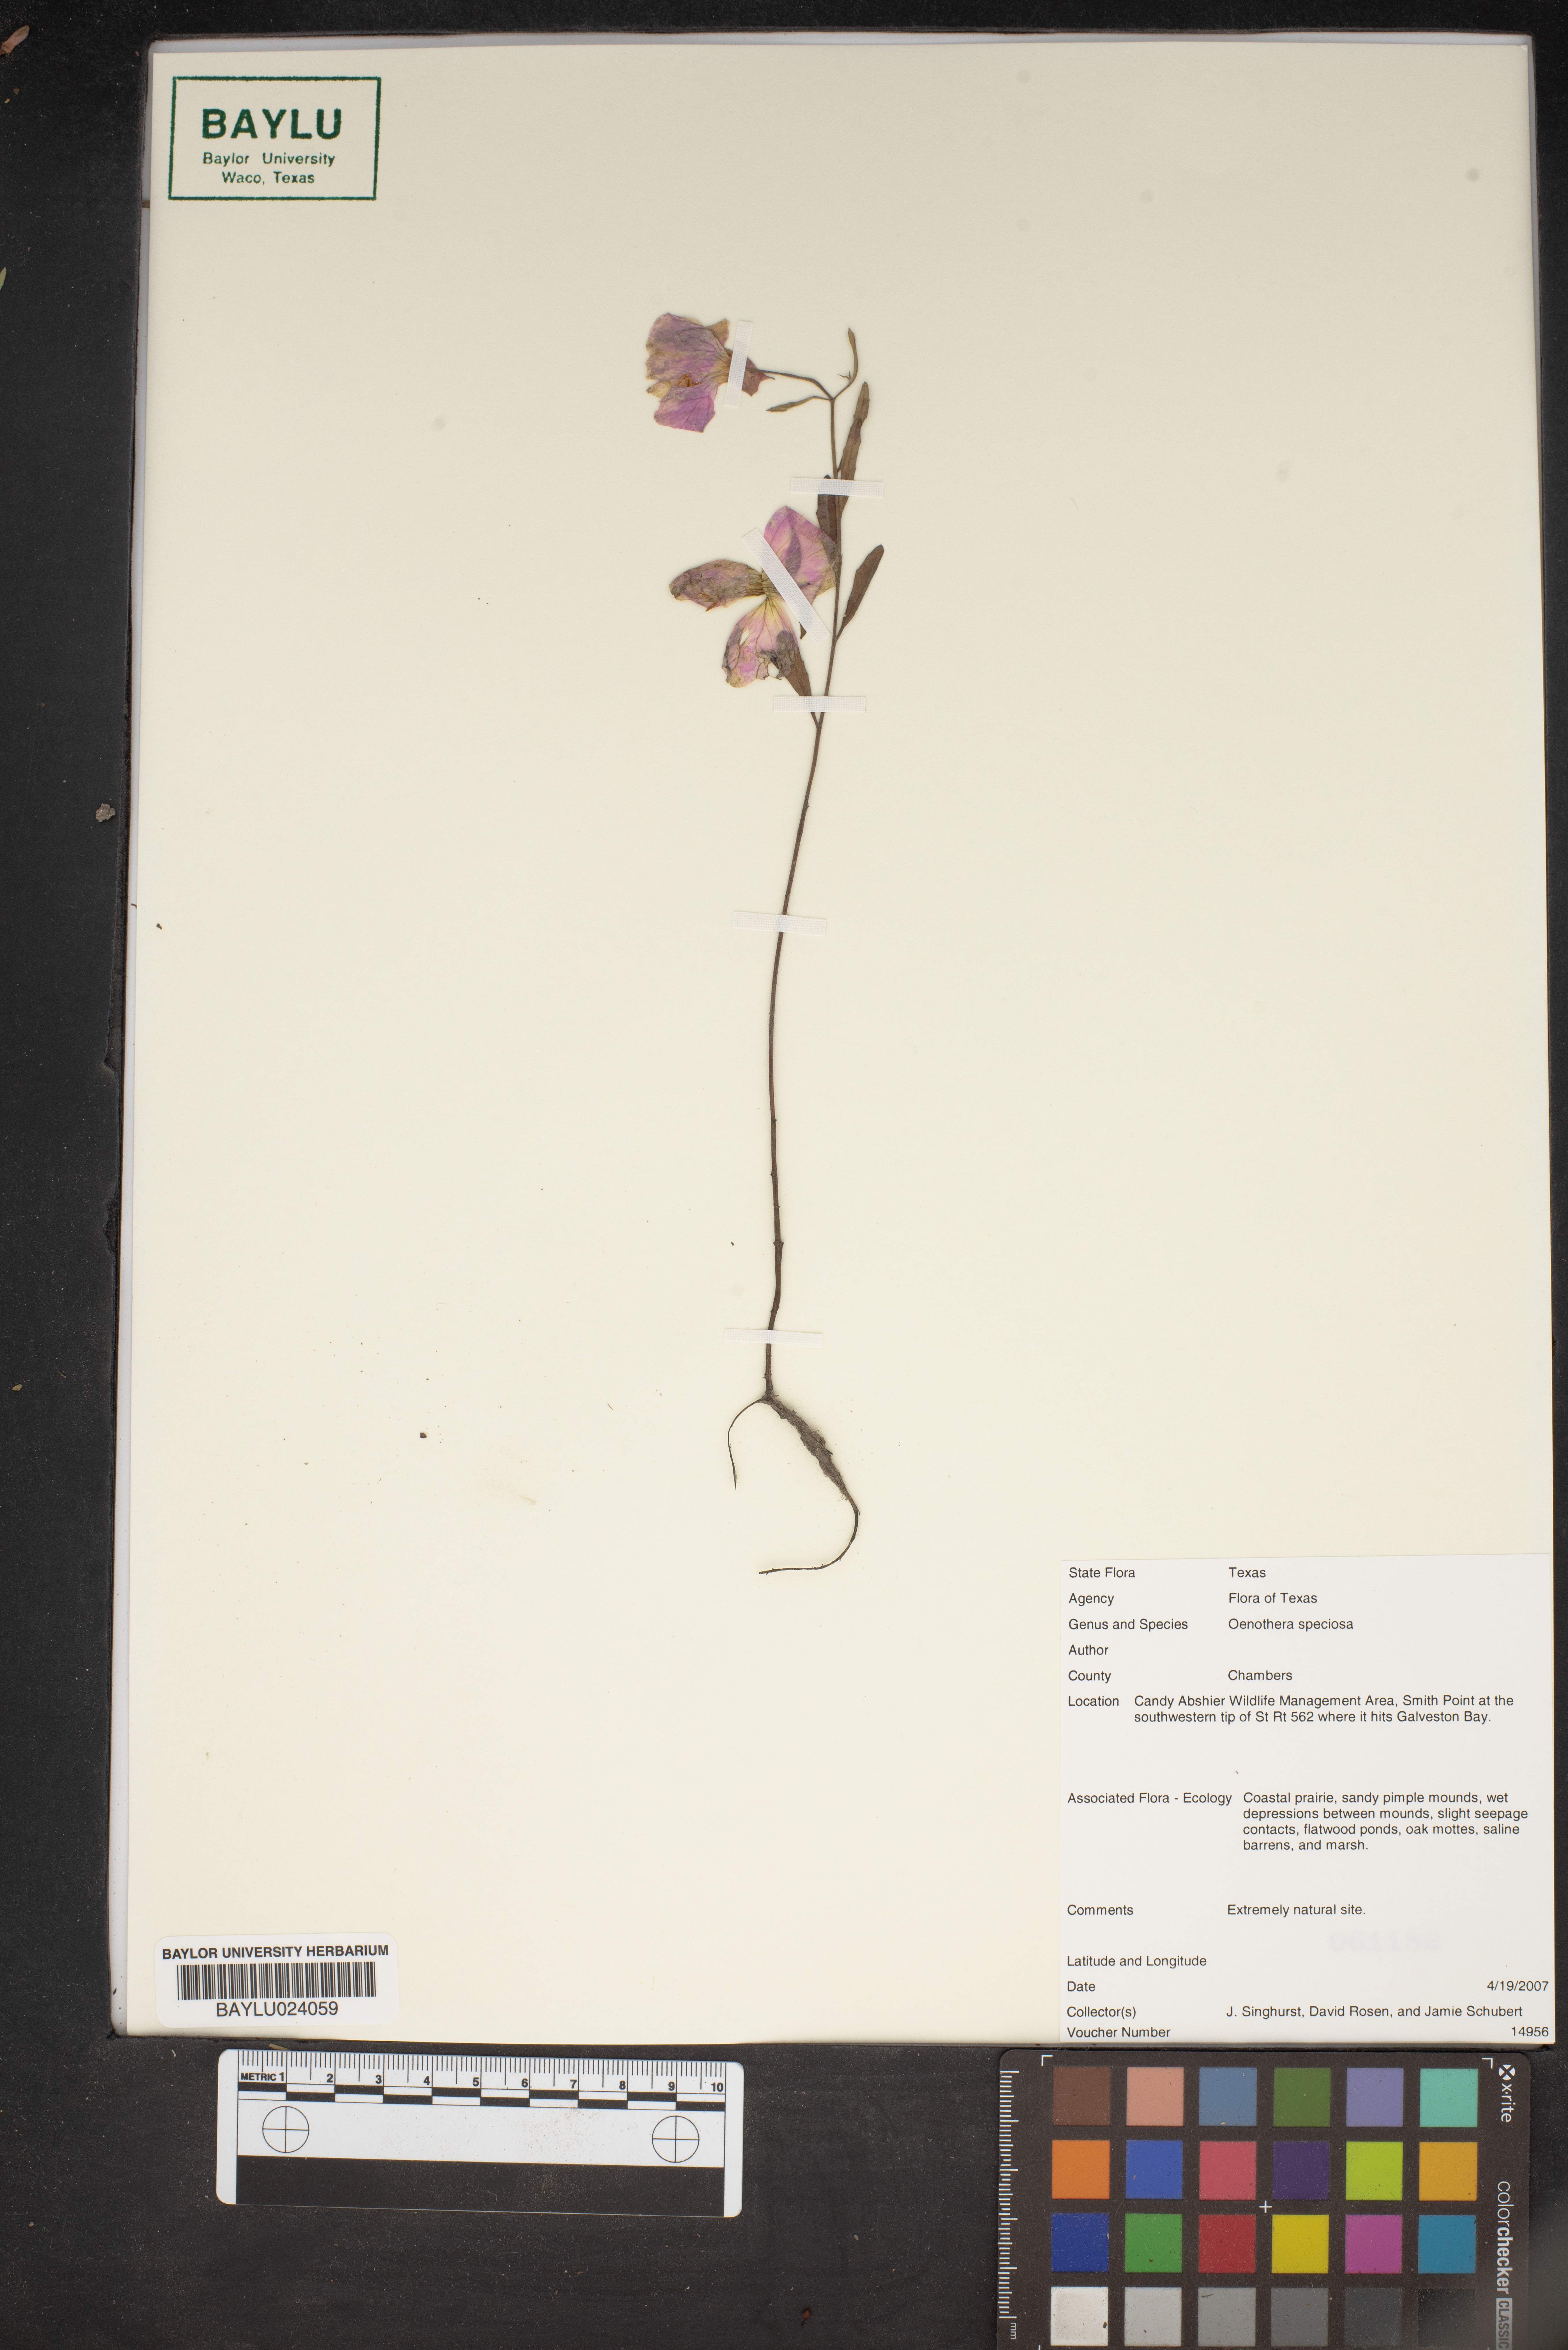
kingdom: Plantae
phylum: Tracheophyta
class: Magnoliopsida
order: Myrtales
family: Onagraceae
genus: Oenothera
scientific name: Oenothera speciosa
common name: White evening-primrose
